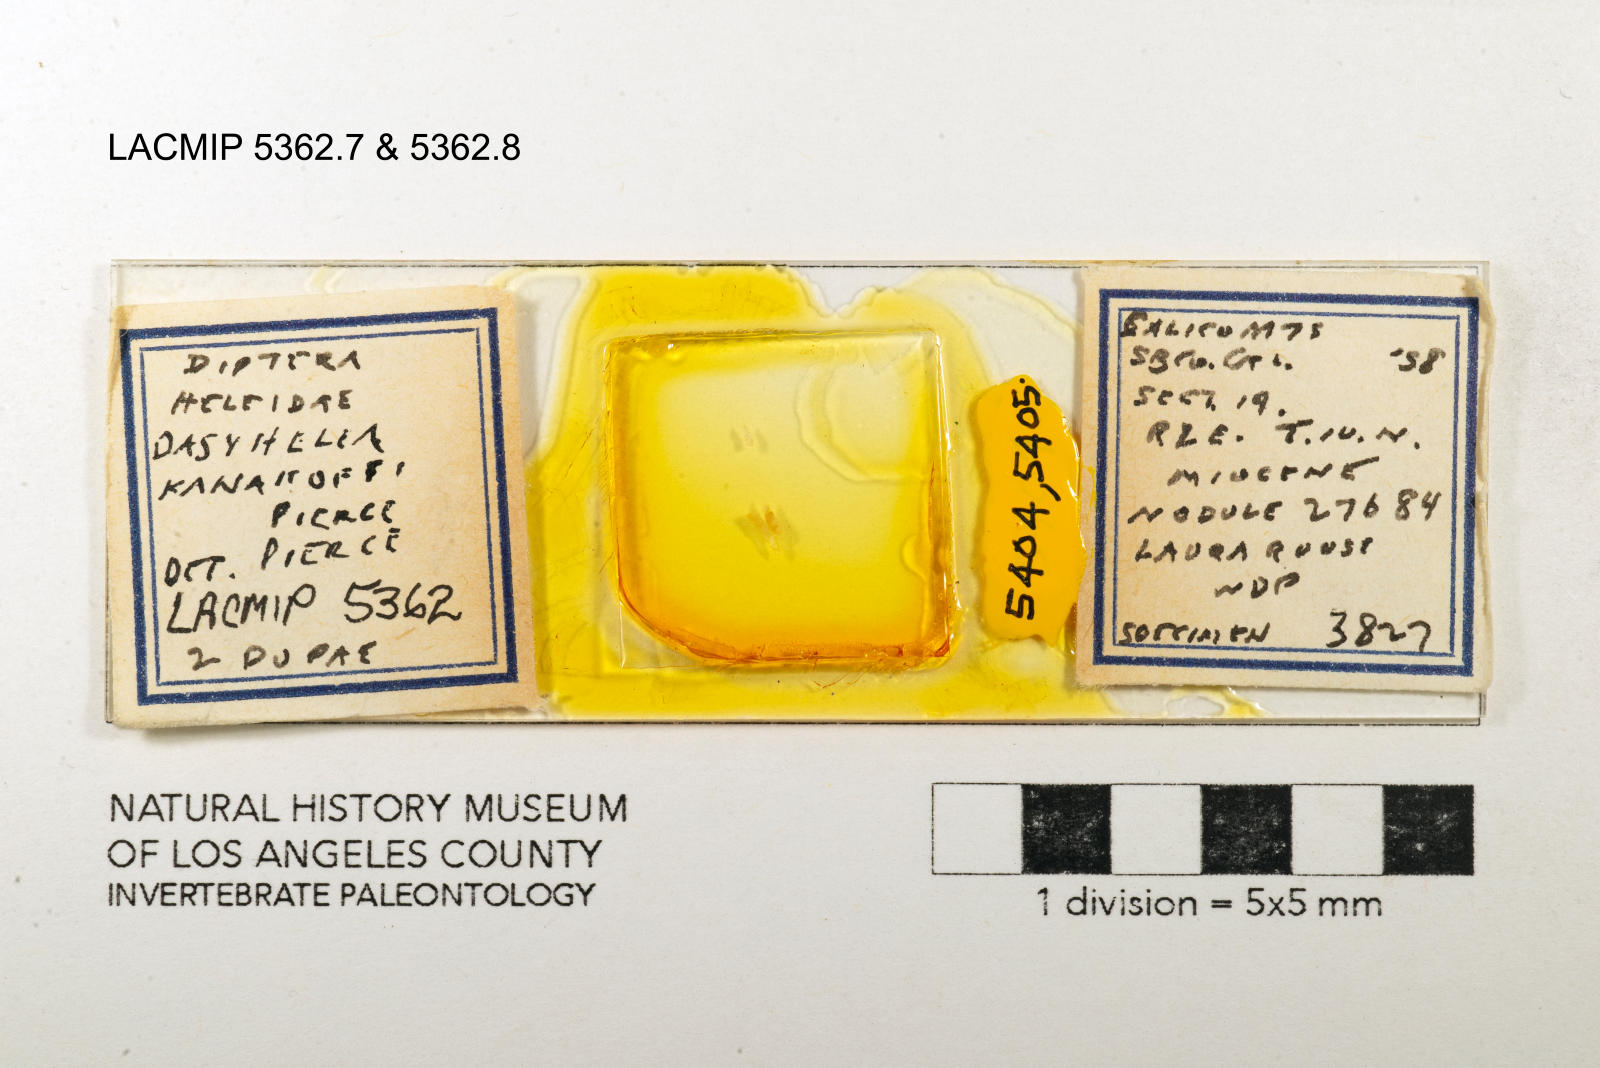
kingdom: Animalia
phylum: Arthropoda
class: Insecta
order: Diptera
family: Ceratopogonidae
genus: Dasyhelea
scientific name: Dasyhelea kanakoffi
